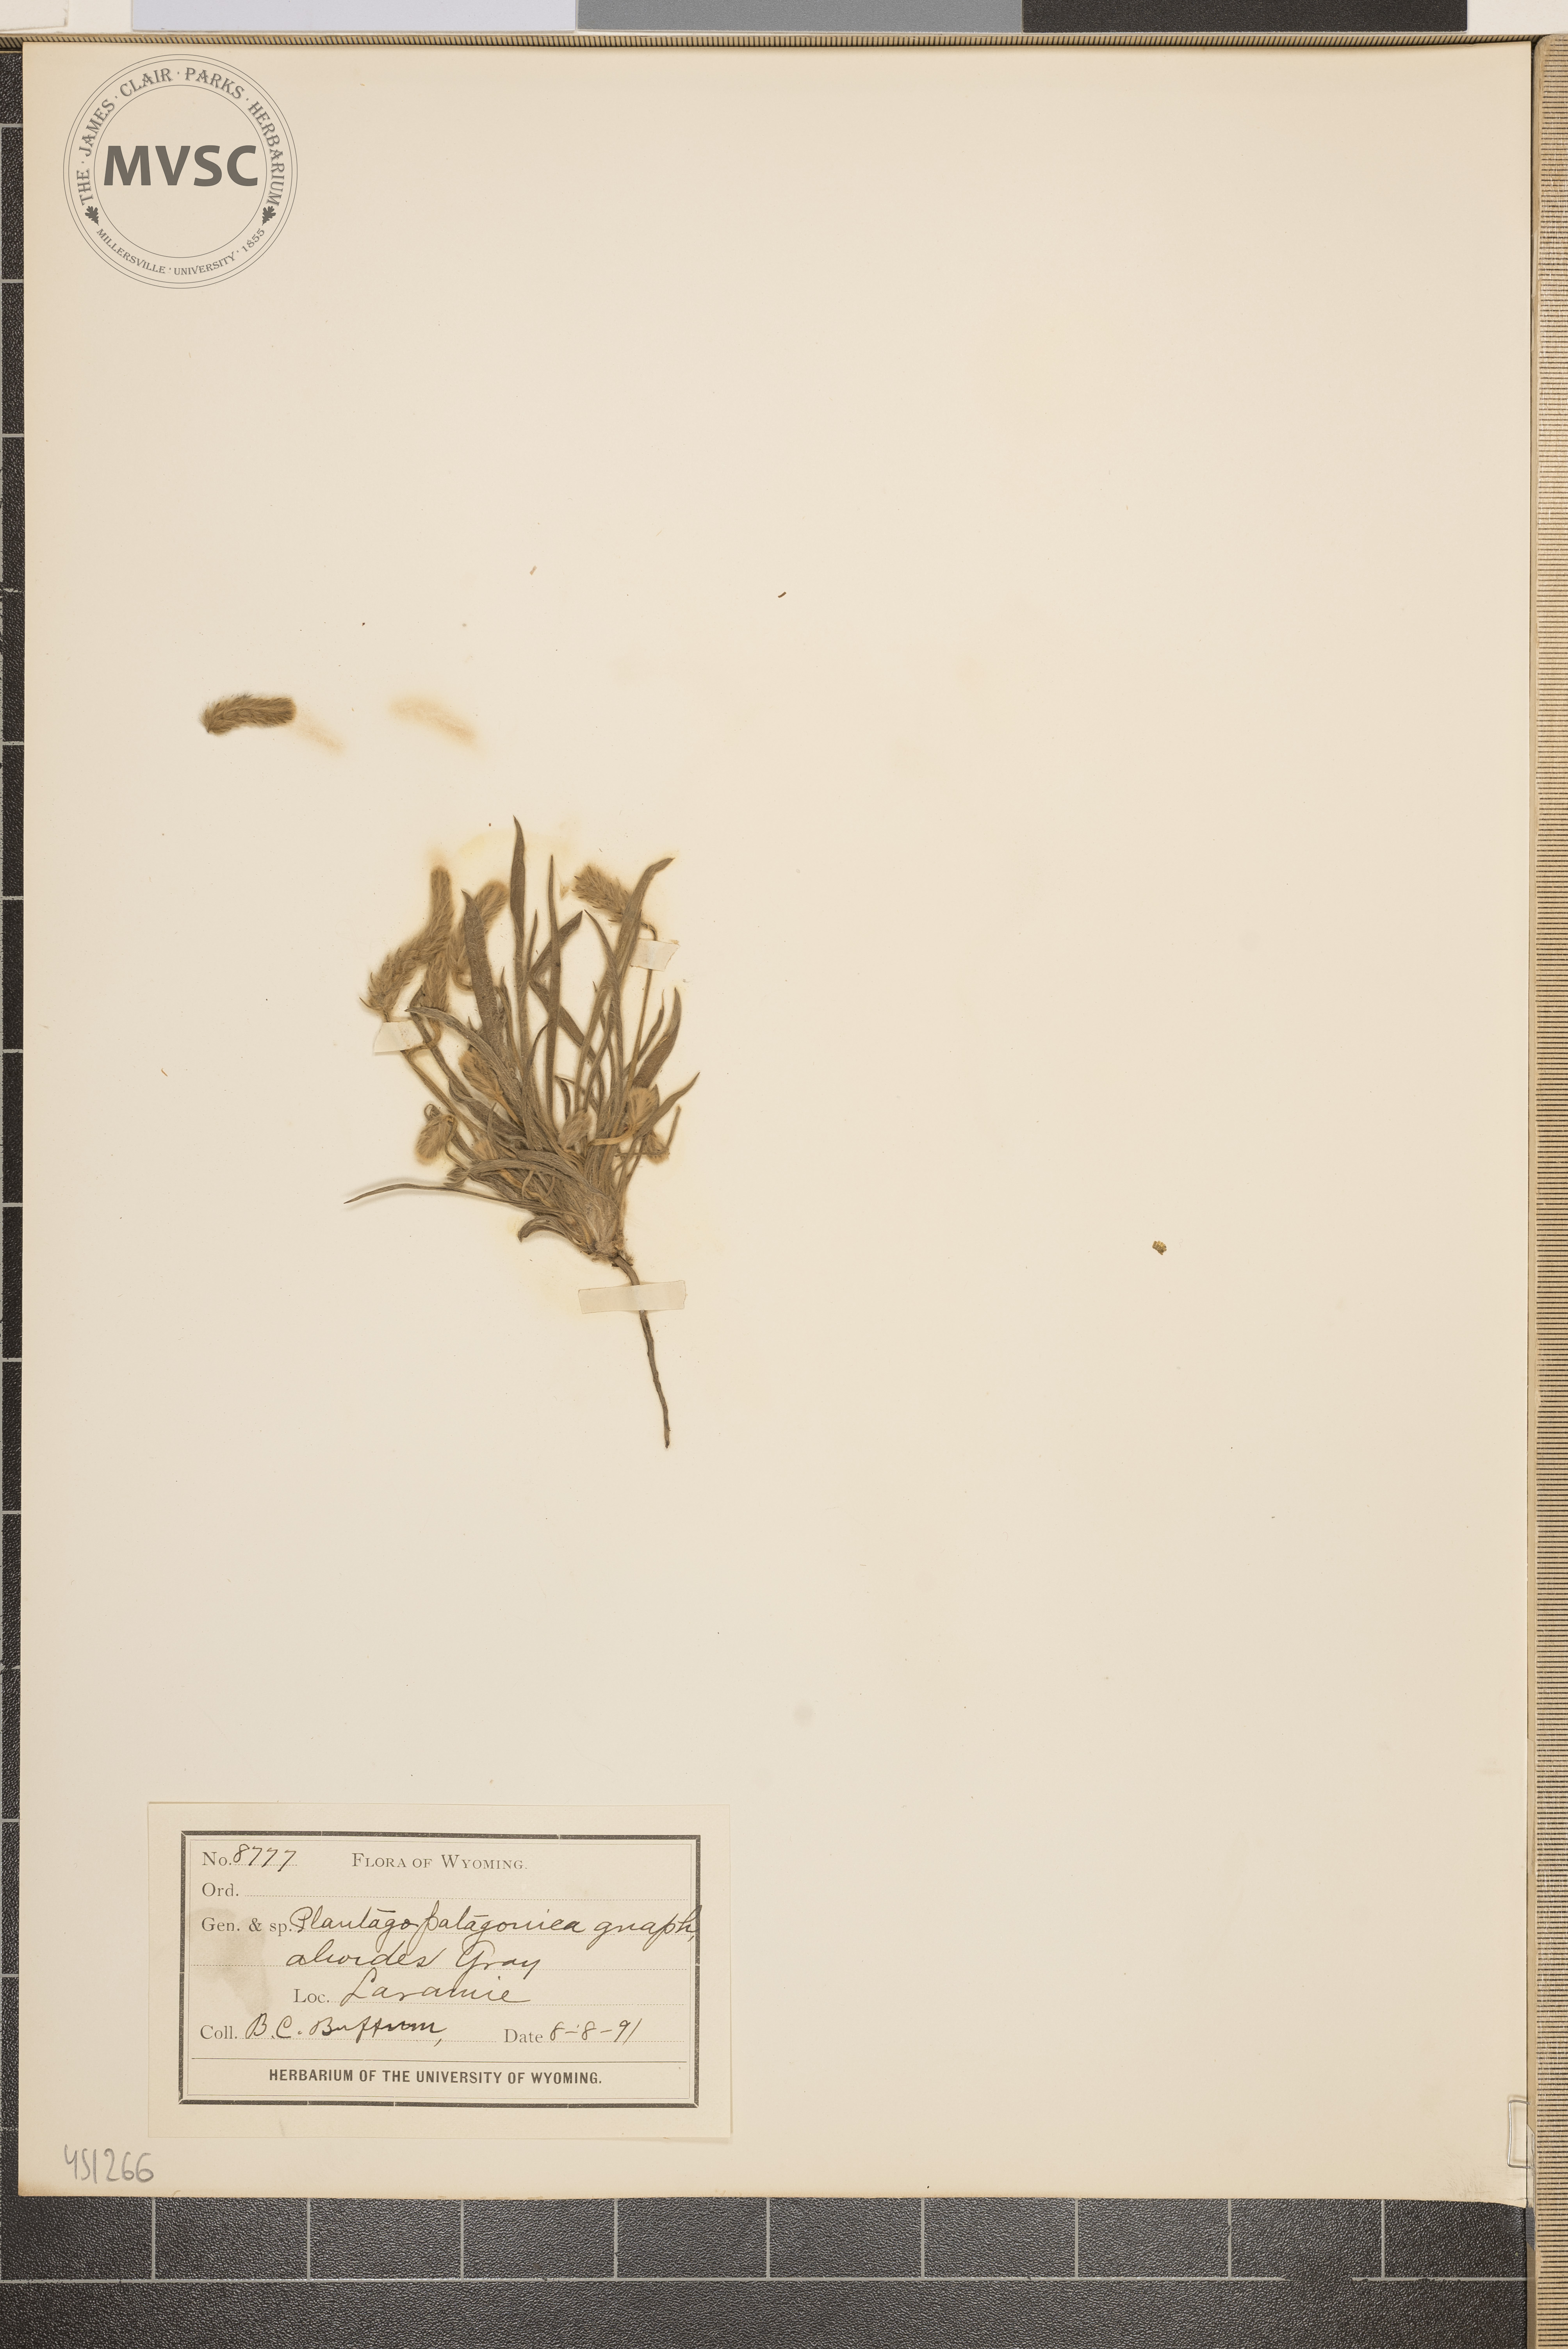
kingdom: Plantae
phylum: Tracheophyta
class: Magnoliopsida
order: Lamiales
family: Plantaginaceae
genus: Plantago
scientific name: Plantago patagonica
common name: Patagonia indian-wheat
